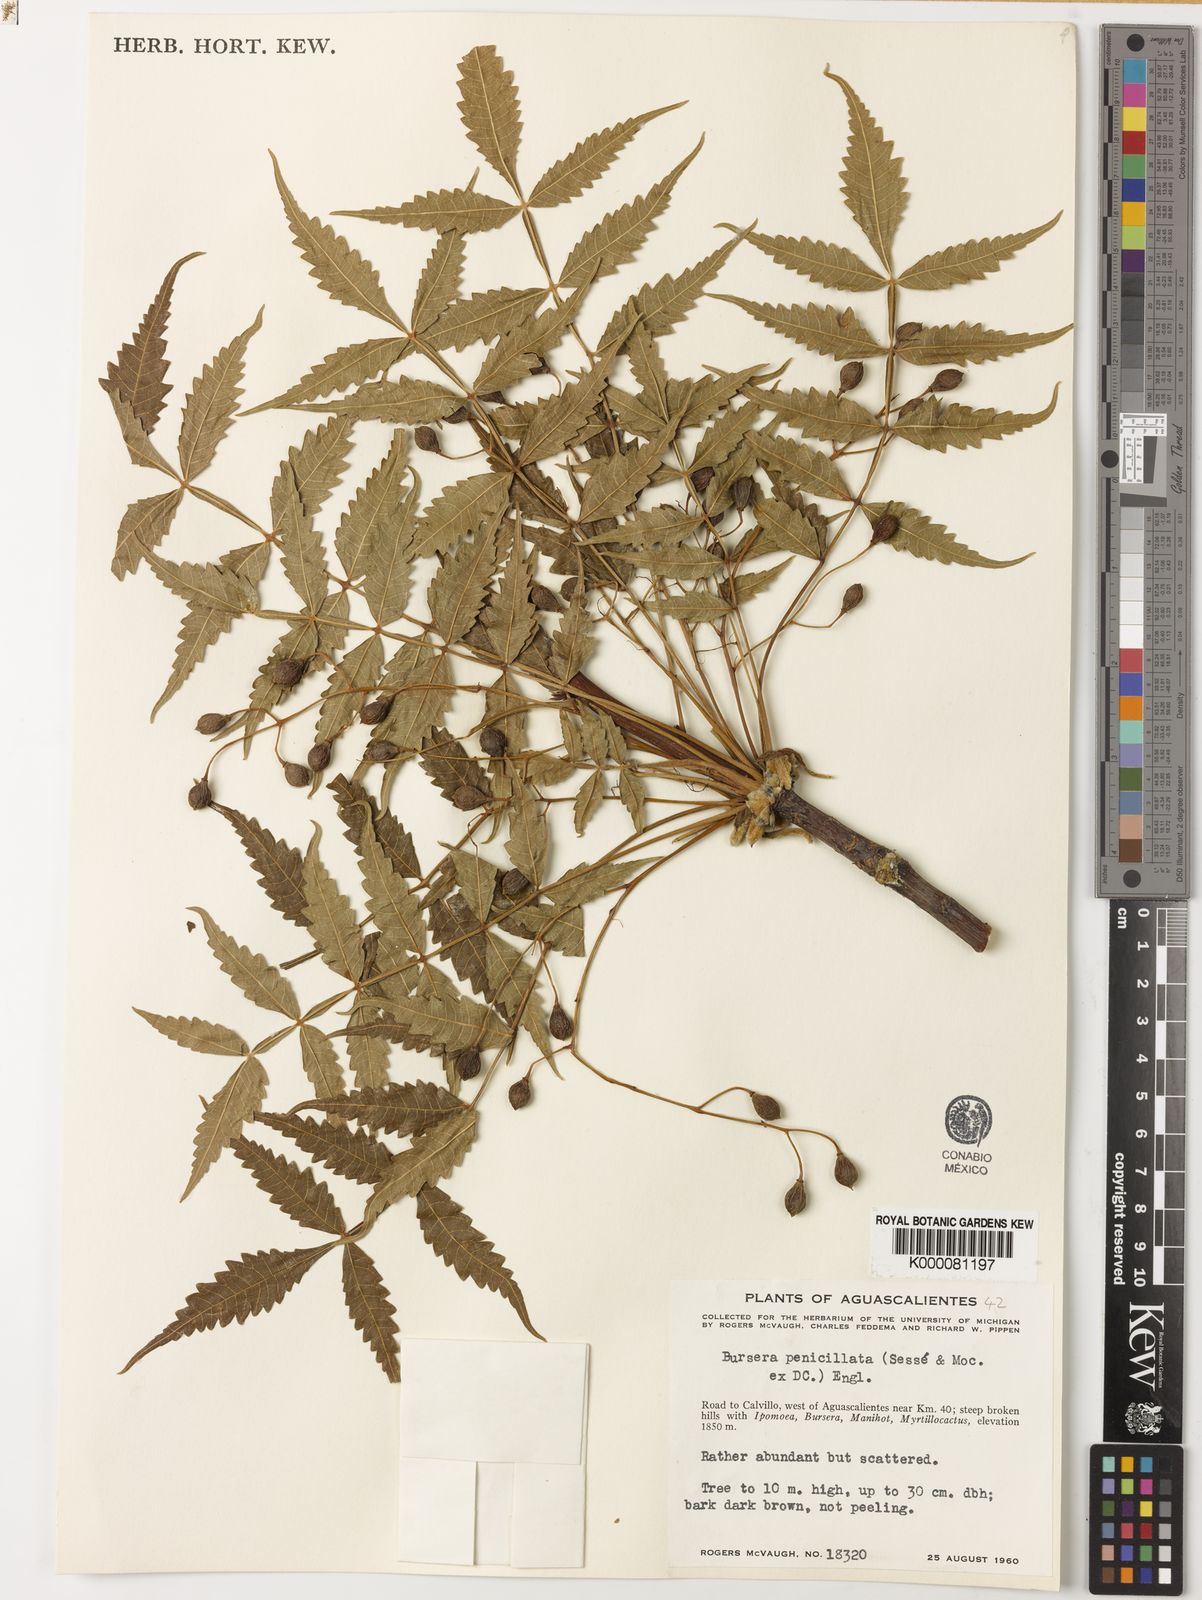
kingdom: Plantae
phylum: Tracheophyta
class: Magnoliopsida
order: Sapindales
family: Burseraceae
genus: Bursera
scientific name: Bursera penicillata
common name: Indian-lavender
